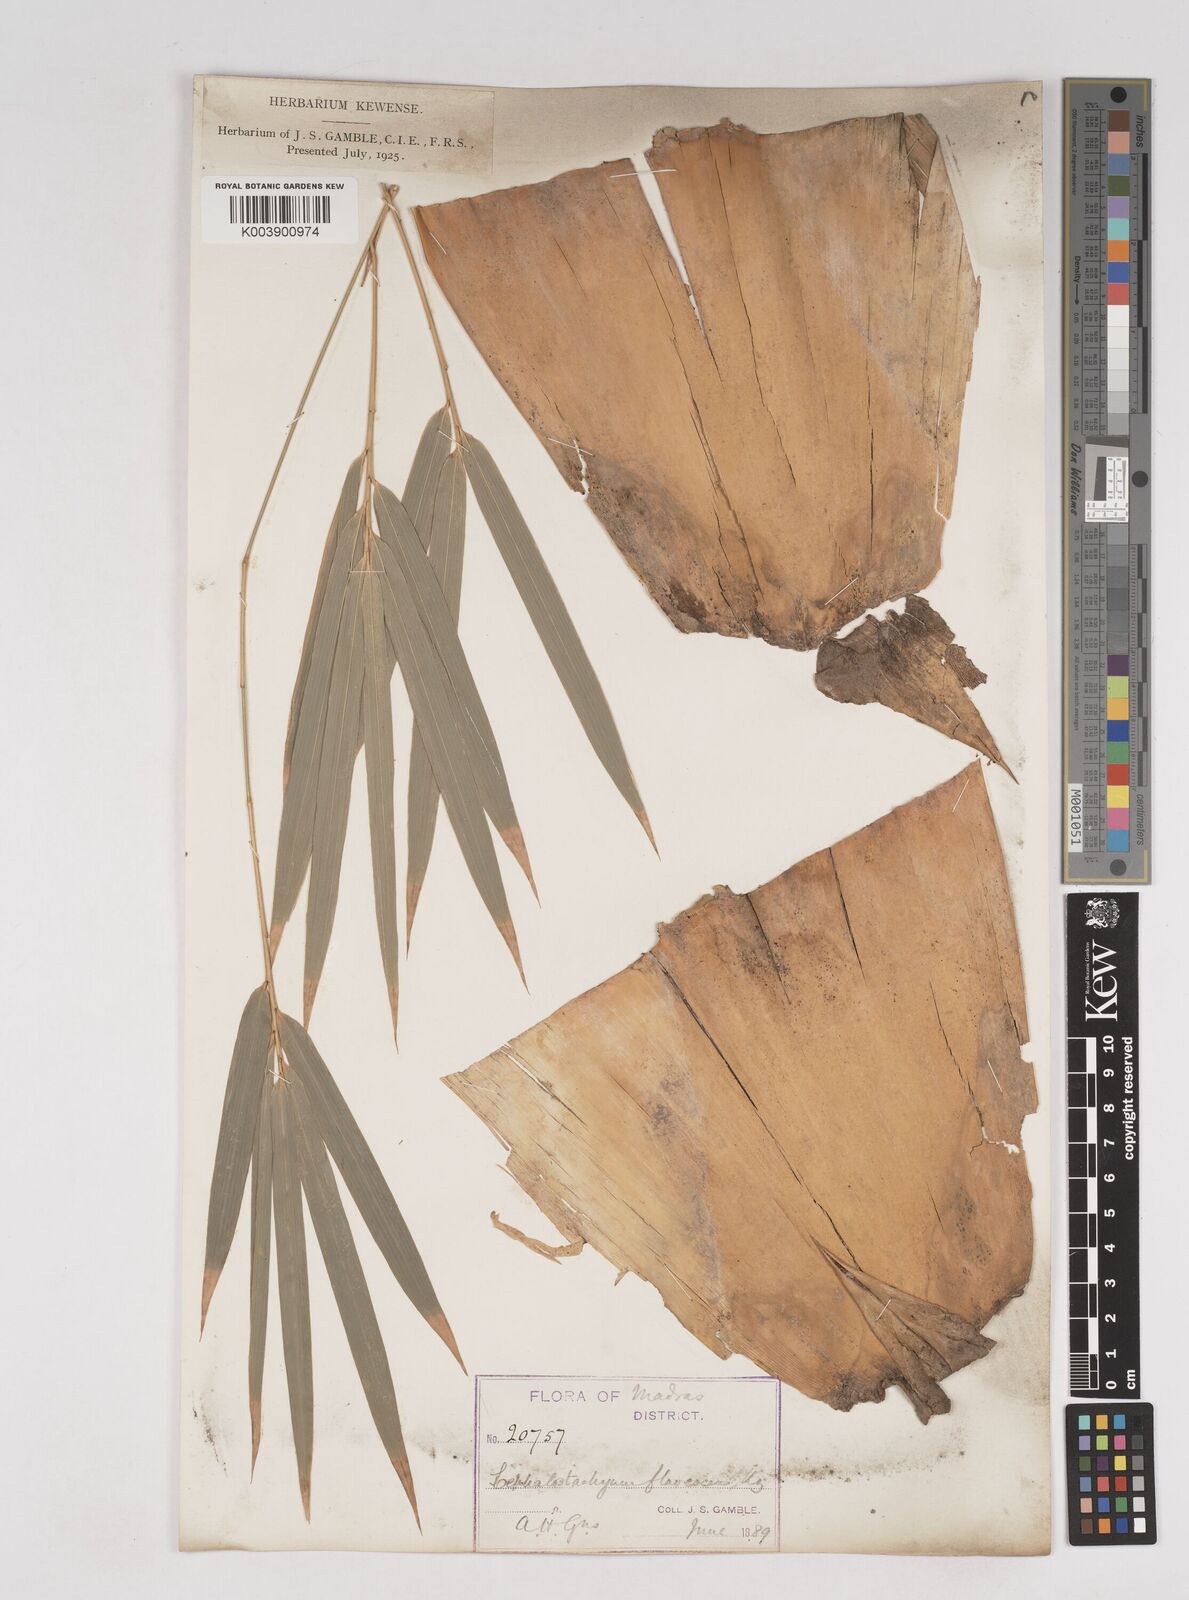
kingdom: Plantae
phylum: Tracheophyta
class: Liliopsida
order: Poales
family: Poaceae
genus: Cephalostachyum
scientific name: Cephalostachyum flavescens
